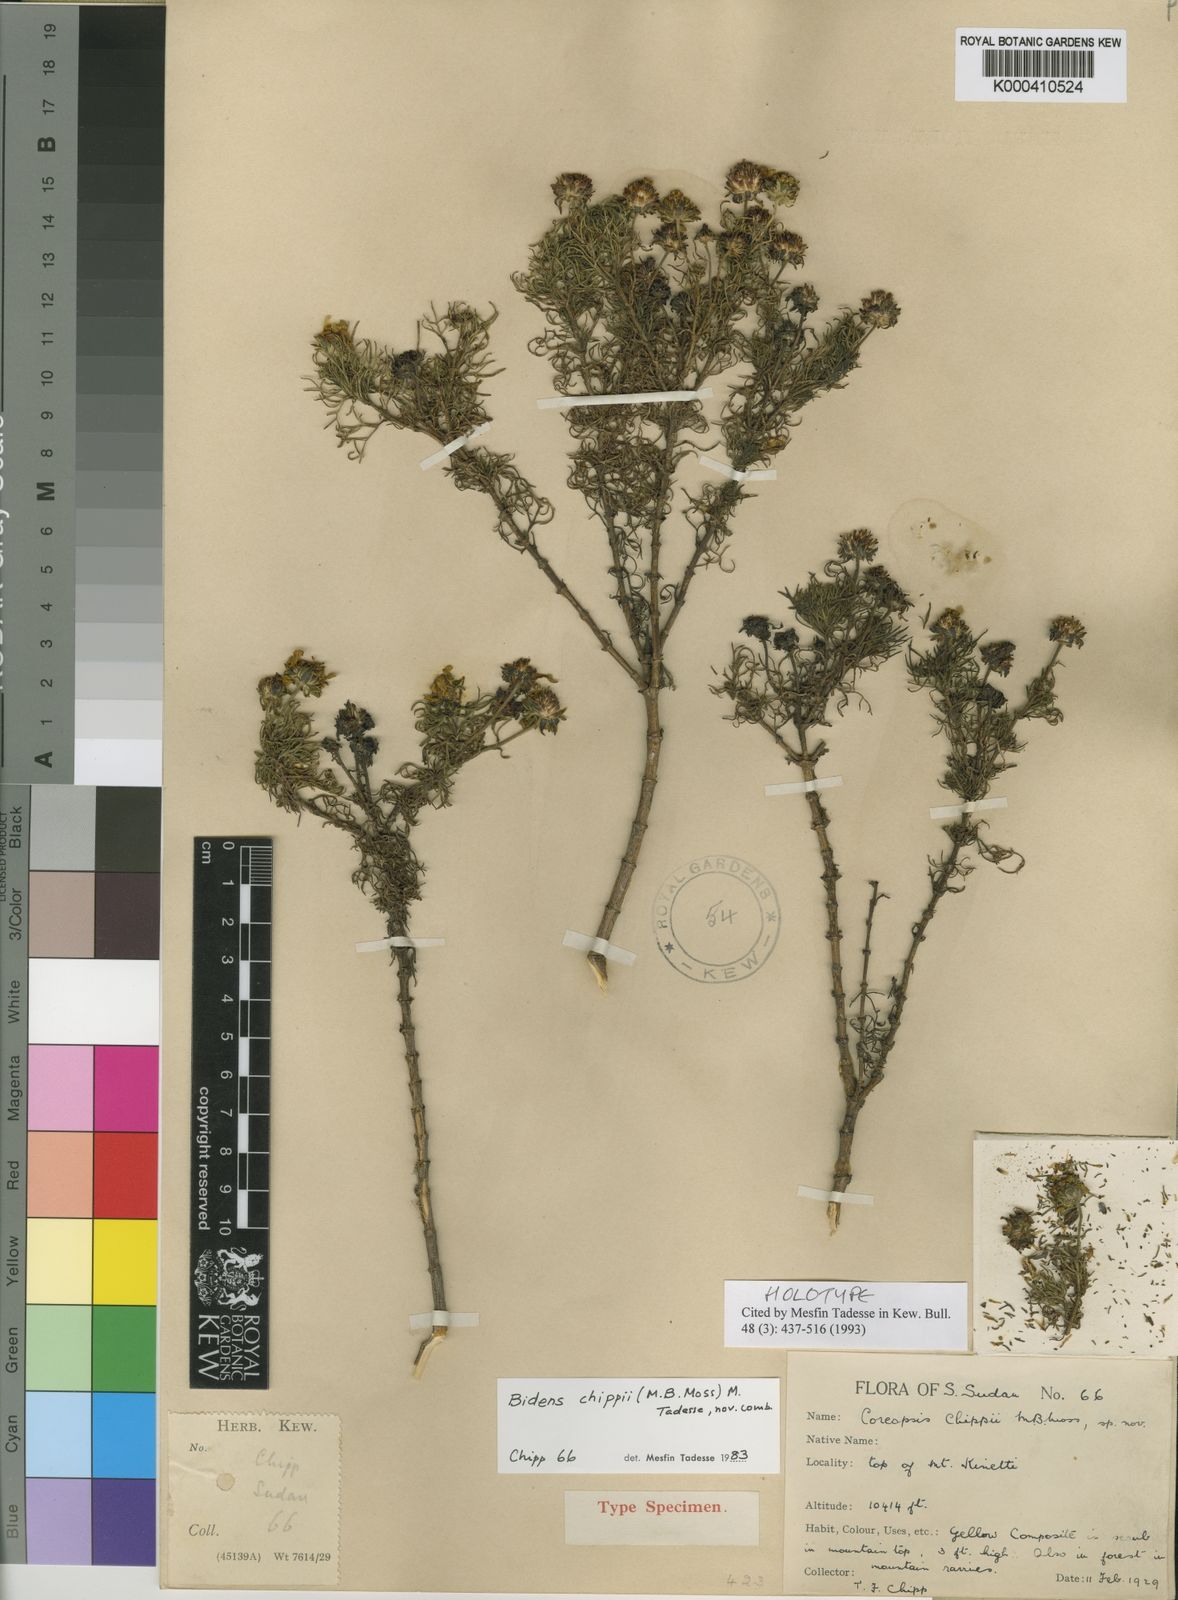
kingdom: Plantae
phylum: Tracheophyta
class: Magnoliopsida
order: Asterales
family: Asteraceae
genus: Bidens
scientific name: Bidens chippii
